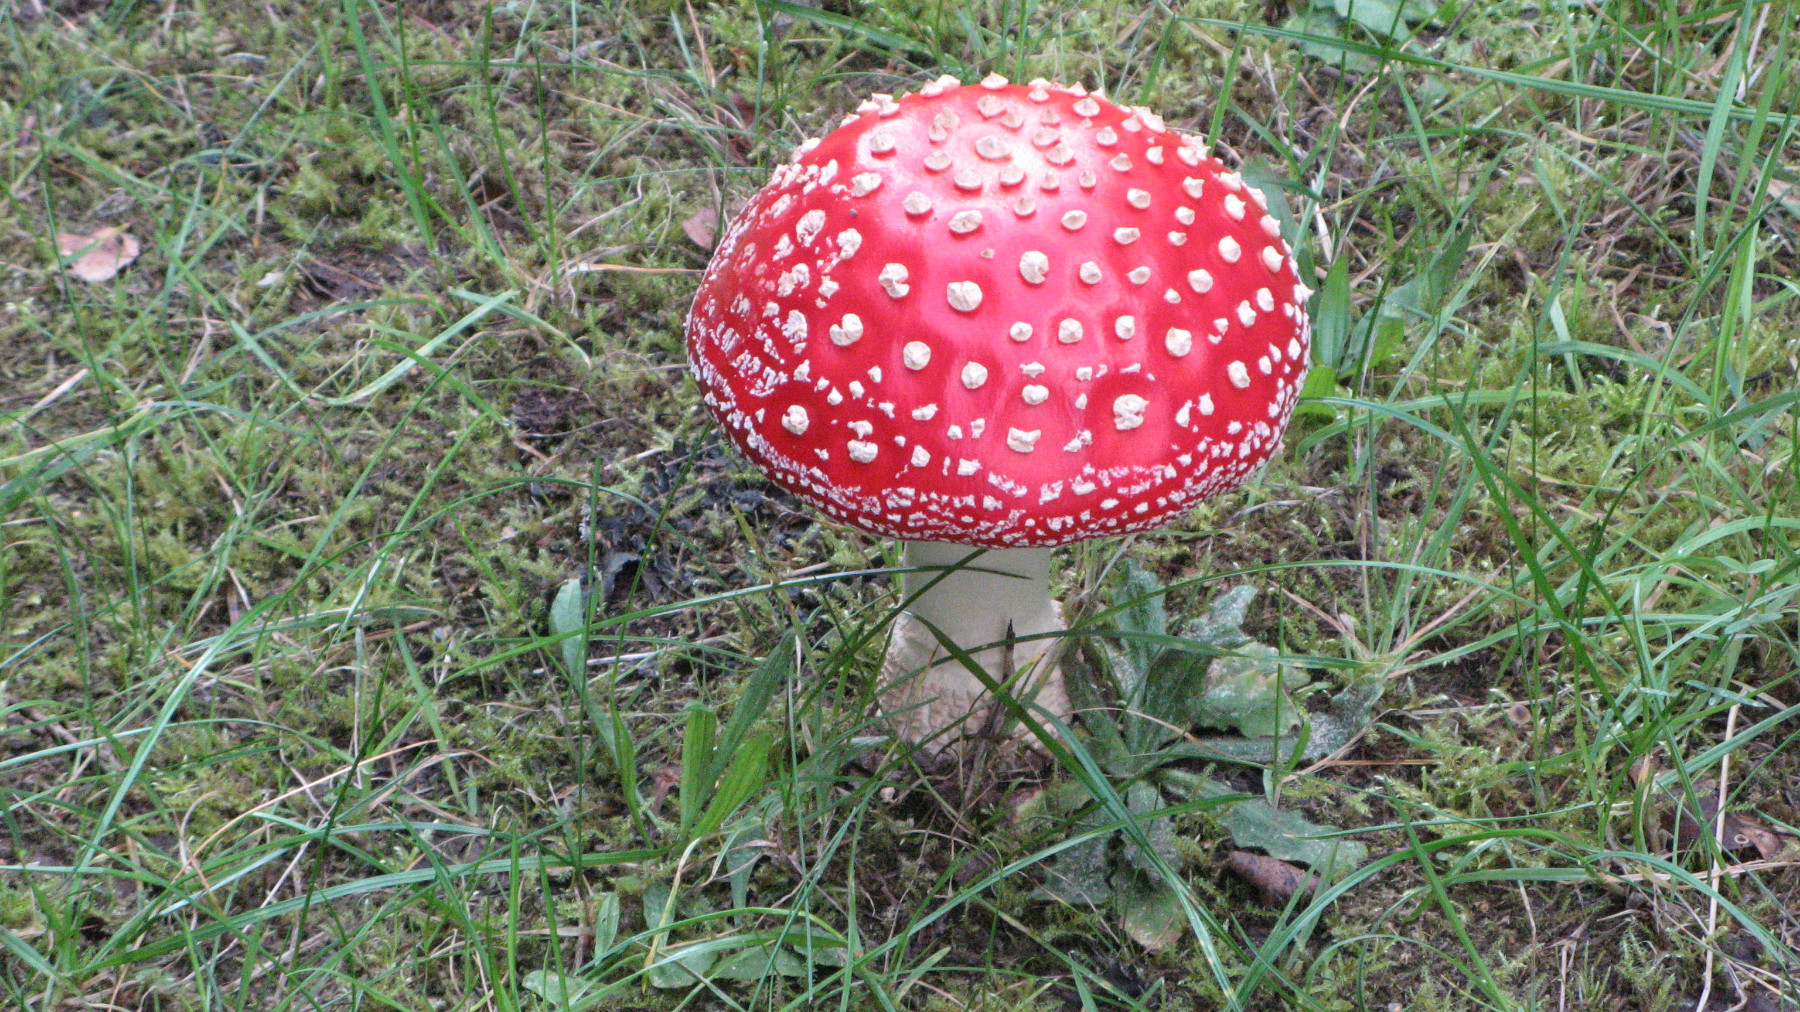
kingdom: Fungi
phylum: Basidiomycota
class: Agaricomycetes
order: Agaricales
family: Amanitaceae
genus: Amanita
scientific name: Amanita muscaria
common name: rød fluesvamp
